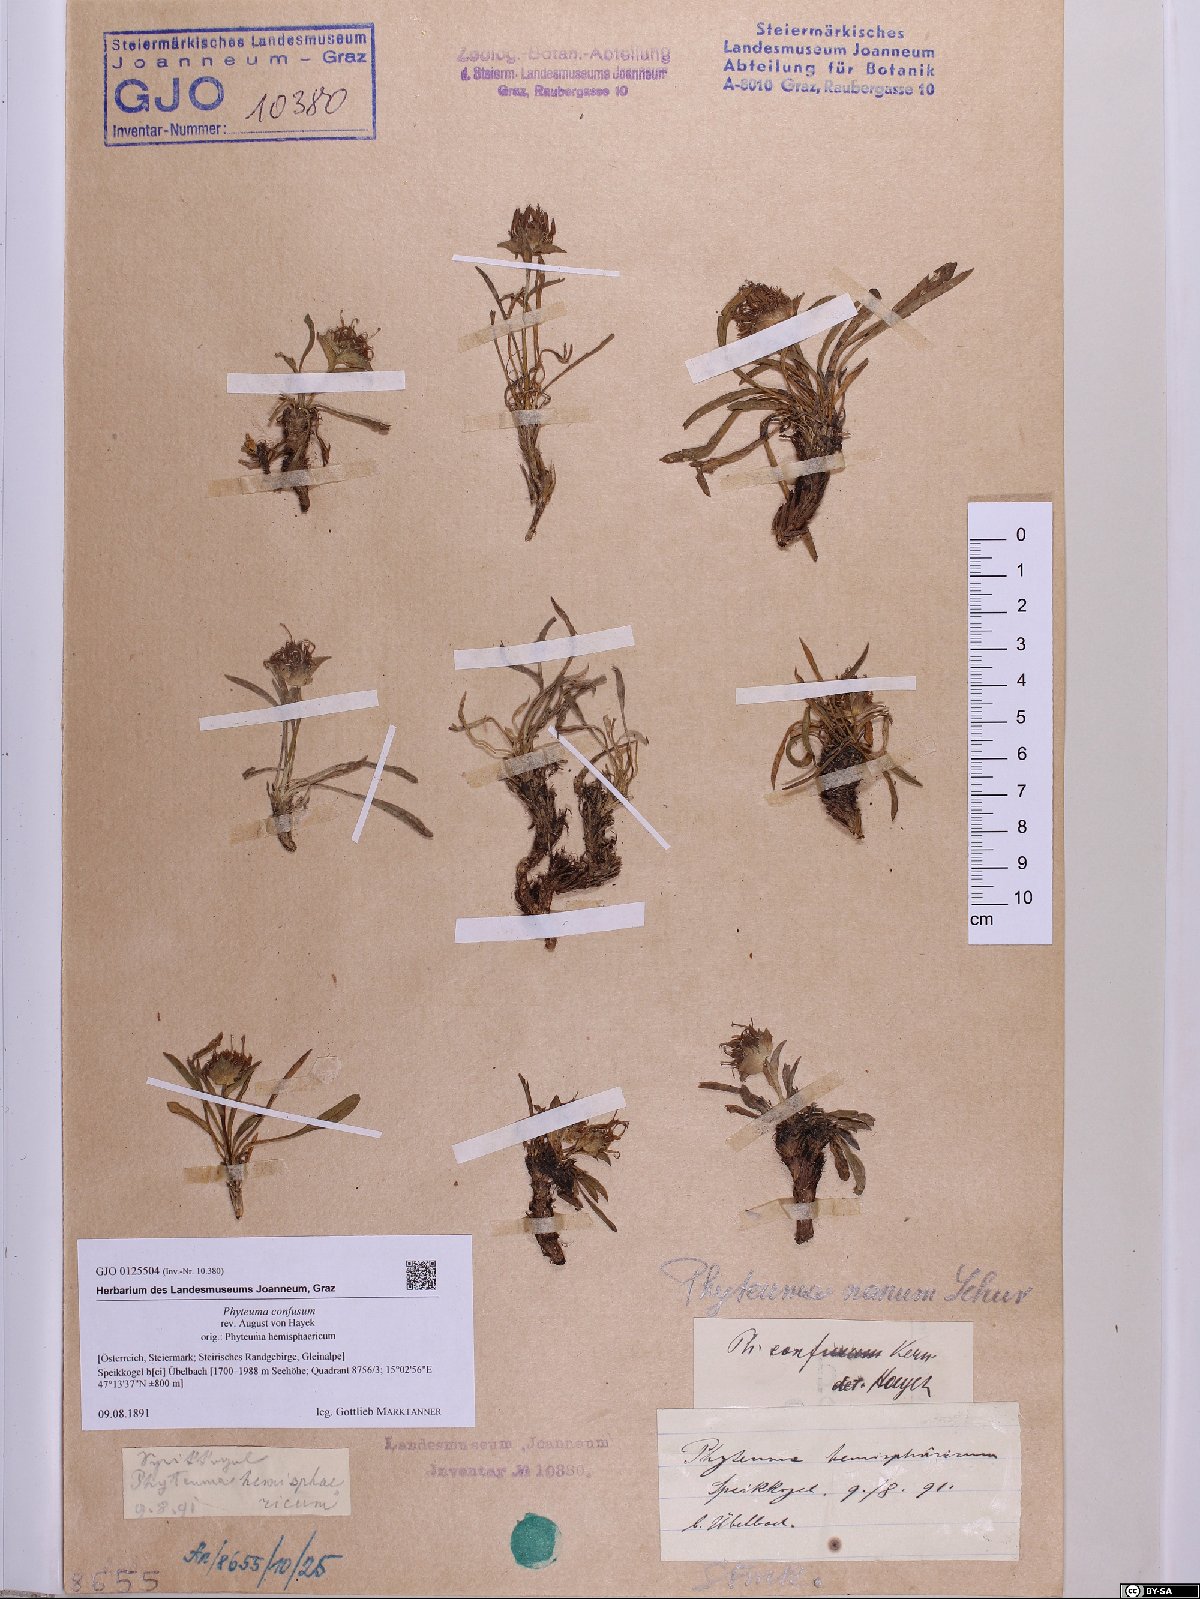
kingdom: Plantae
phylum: Tracheophyta
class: Magnoliopsida
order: Asterales
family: Campanulaceae
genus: Phyteuma
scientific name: Phyteuma confusum
